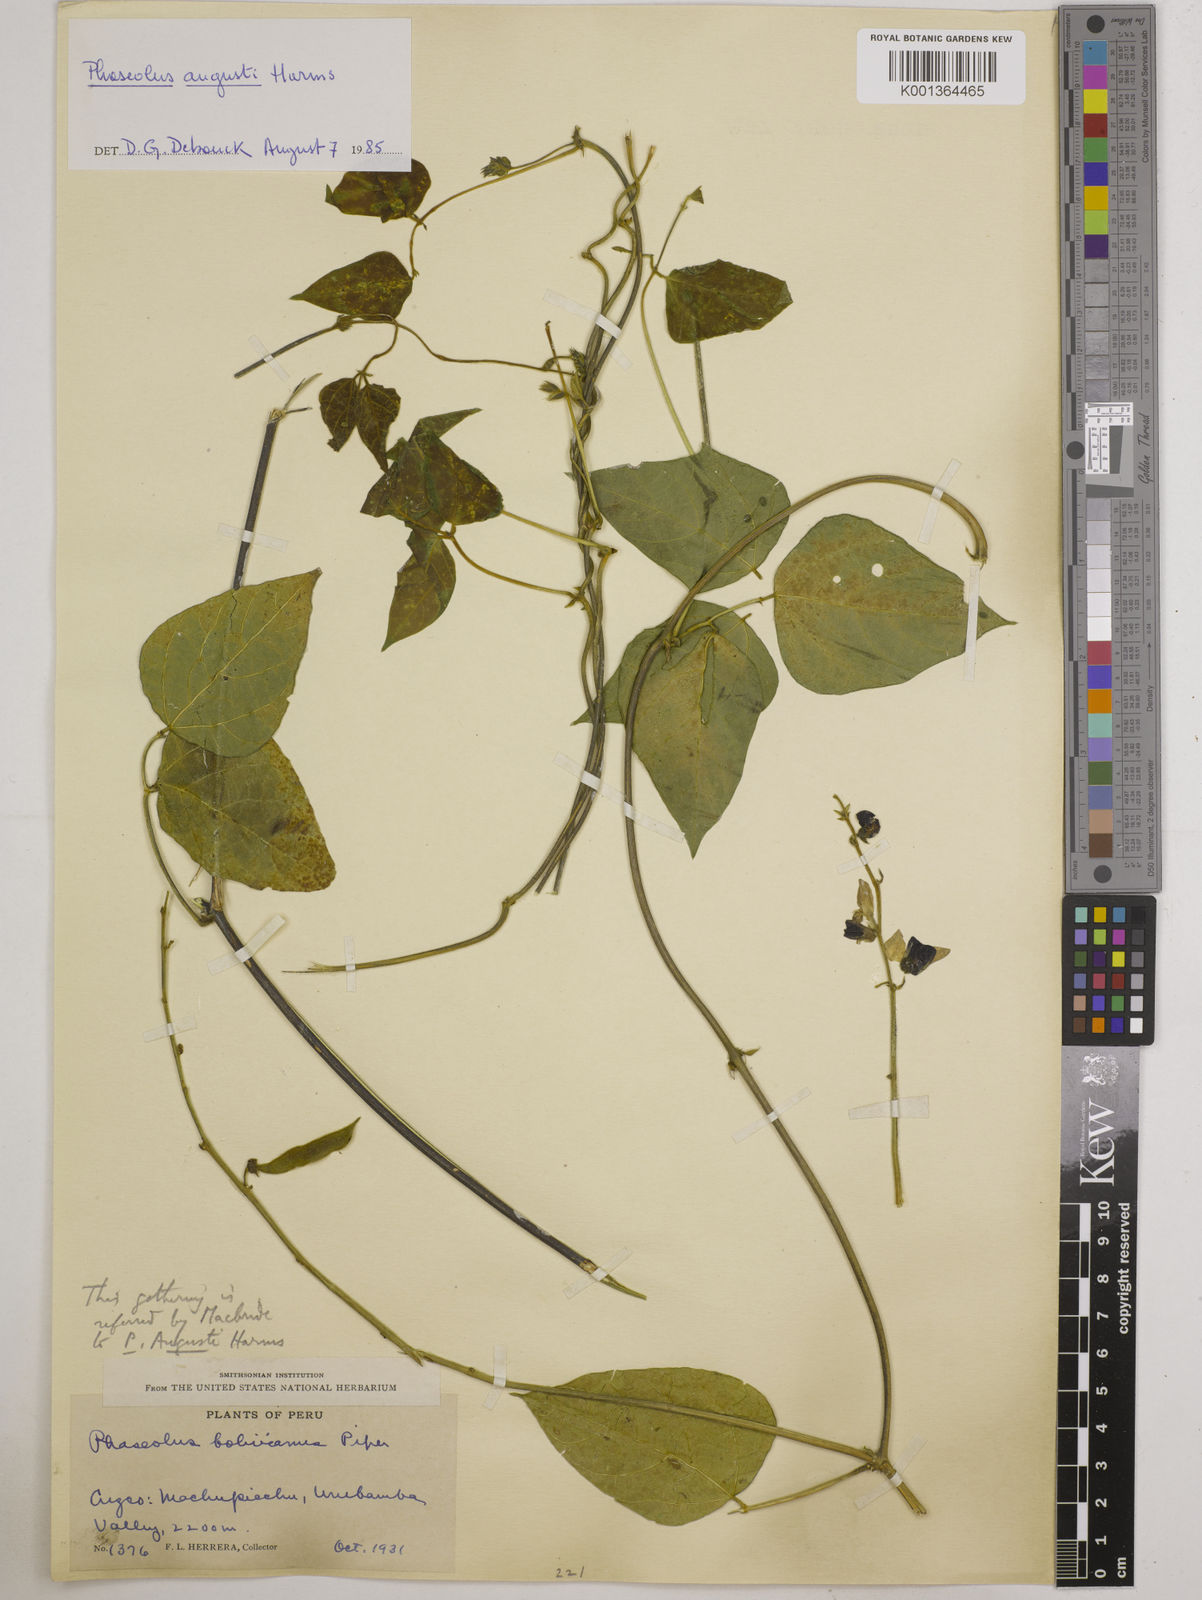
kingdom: Plantae
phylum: Tracheophyta
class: Magnoliopsida
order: Fabales
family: Fabaceae
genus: Phaseolus
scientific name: Phaseolus augusti
